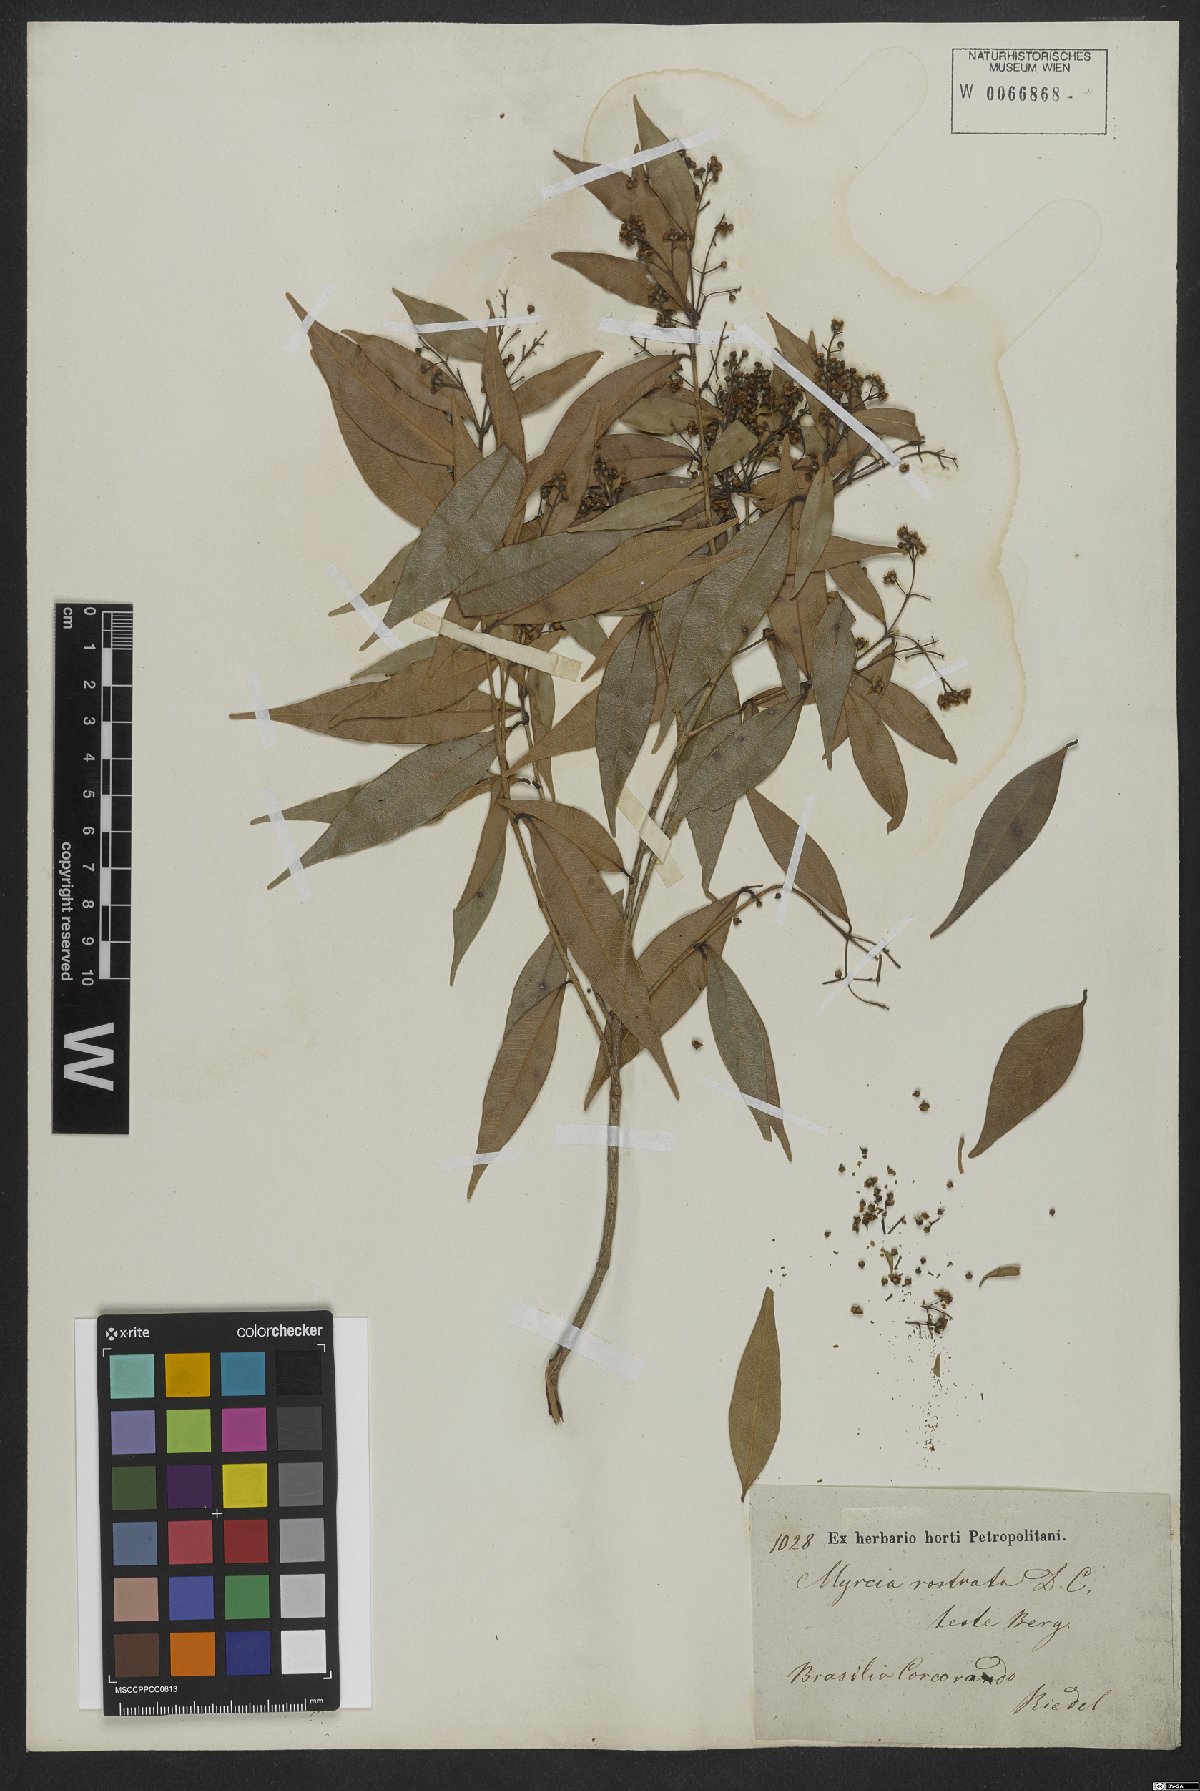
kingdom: Plantae
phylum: Tracheophyta
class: Magnoliopsida
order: Myrtales
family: Myrtaceae
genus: Myrcia
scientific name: Myrcia splendens
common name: Surinam cherry
